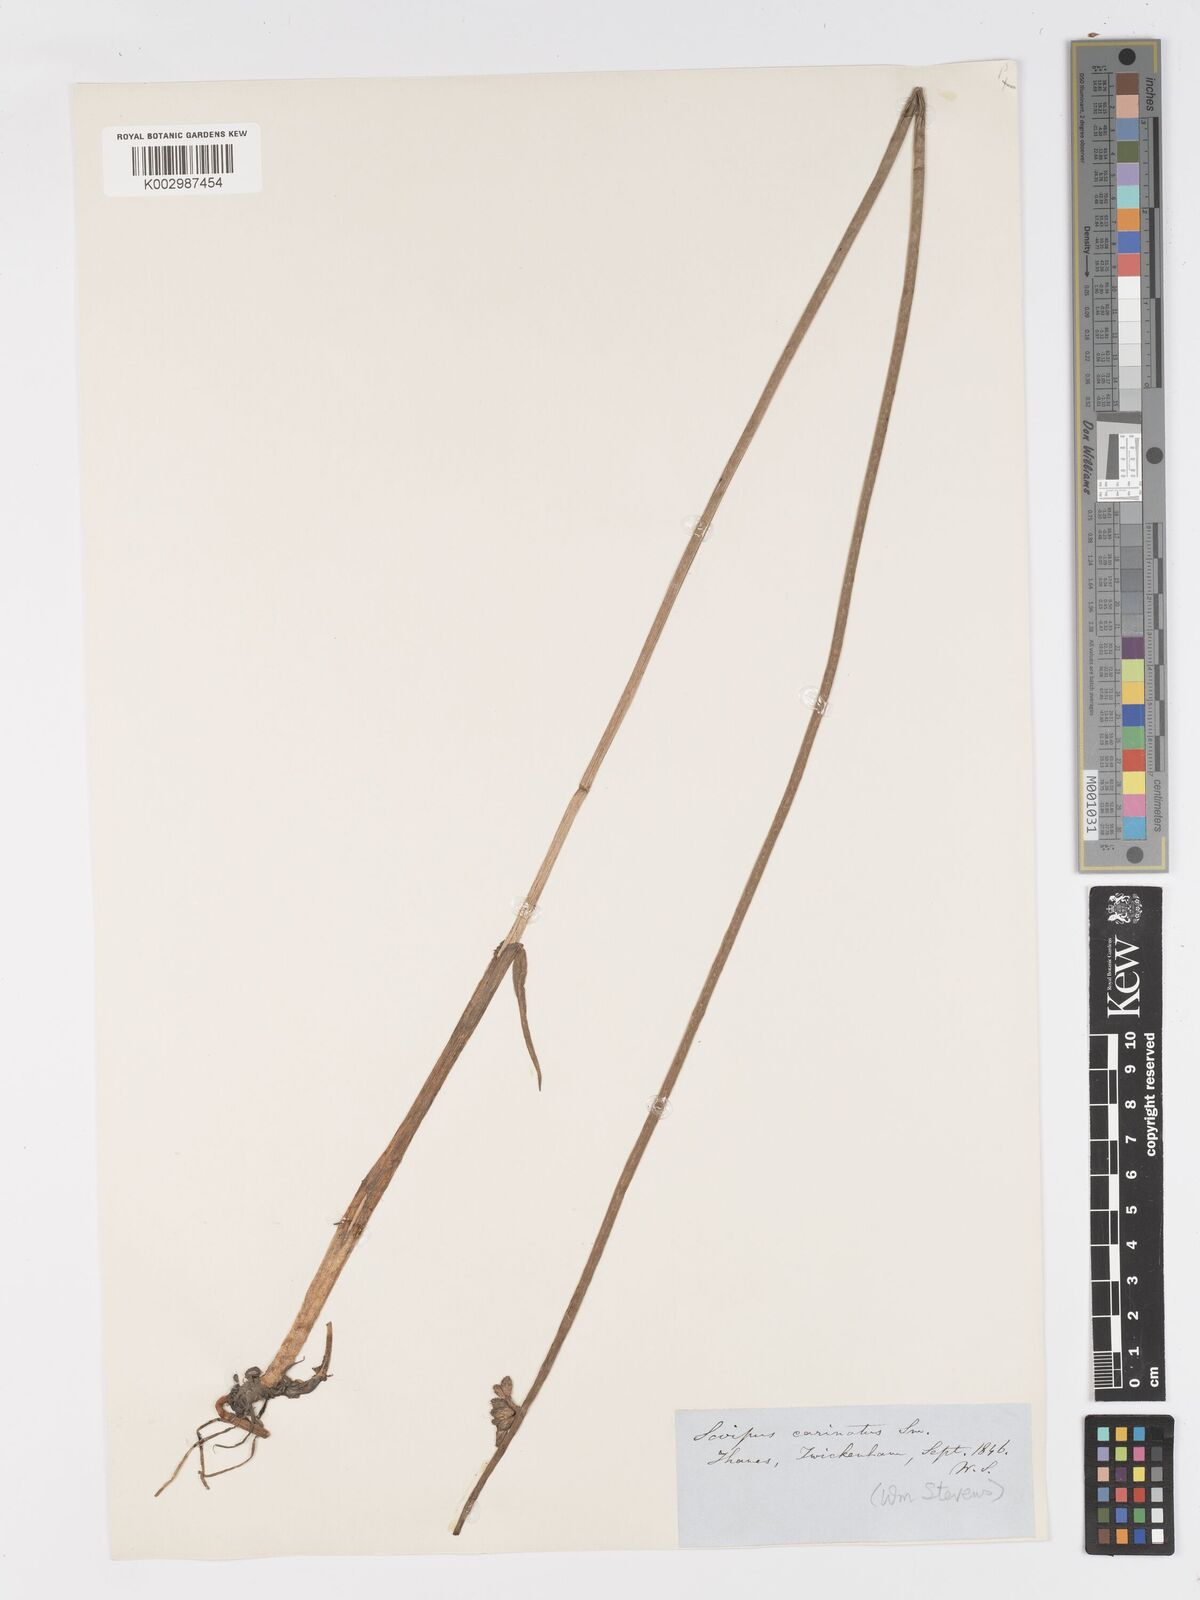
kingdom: Plantae
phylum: Tracheophyta
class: Liliopsida
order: Poales
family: Cyperaceae
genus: Schoenoplectus
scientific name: Schoenoplectus carinatus
